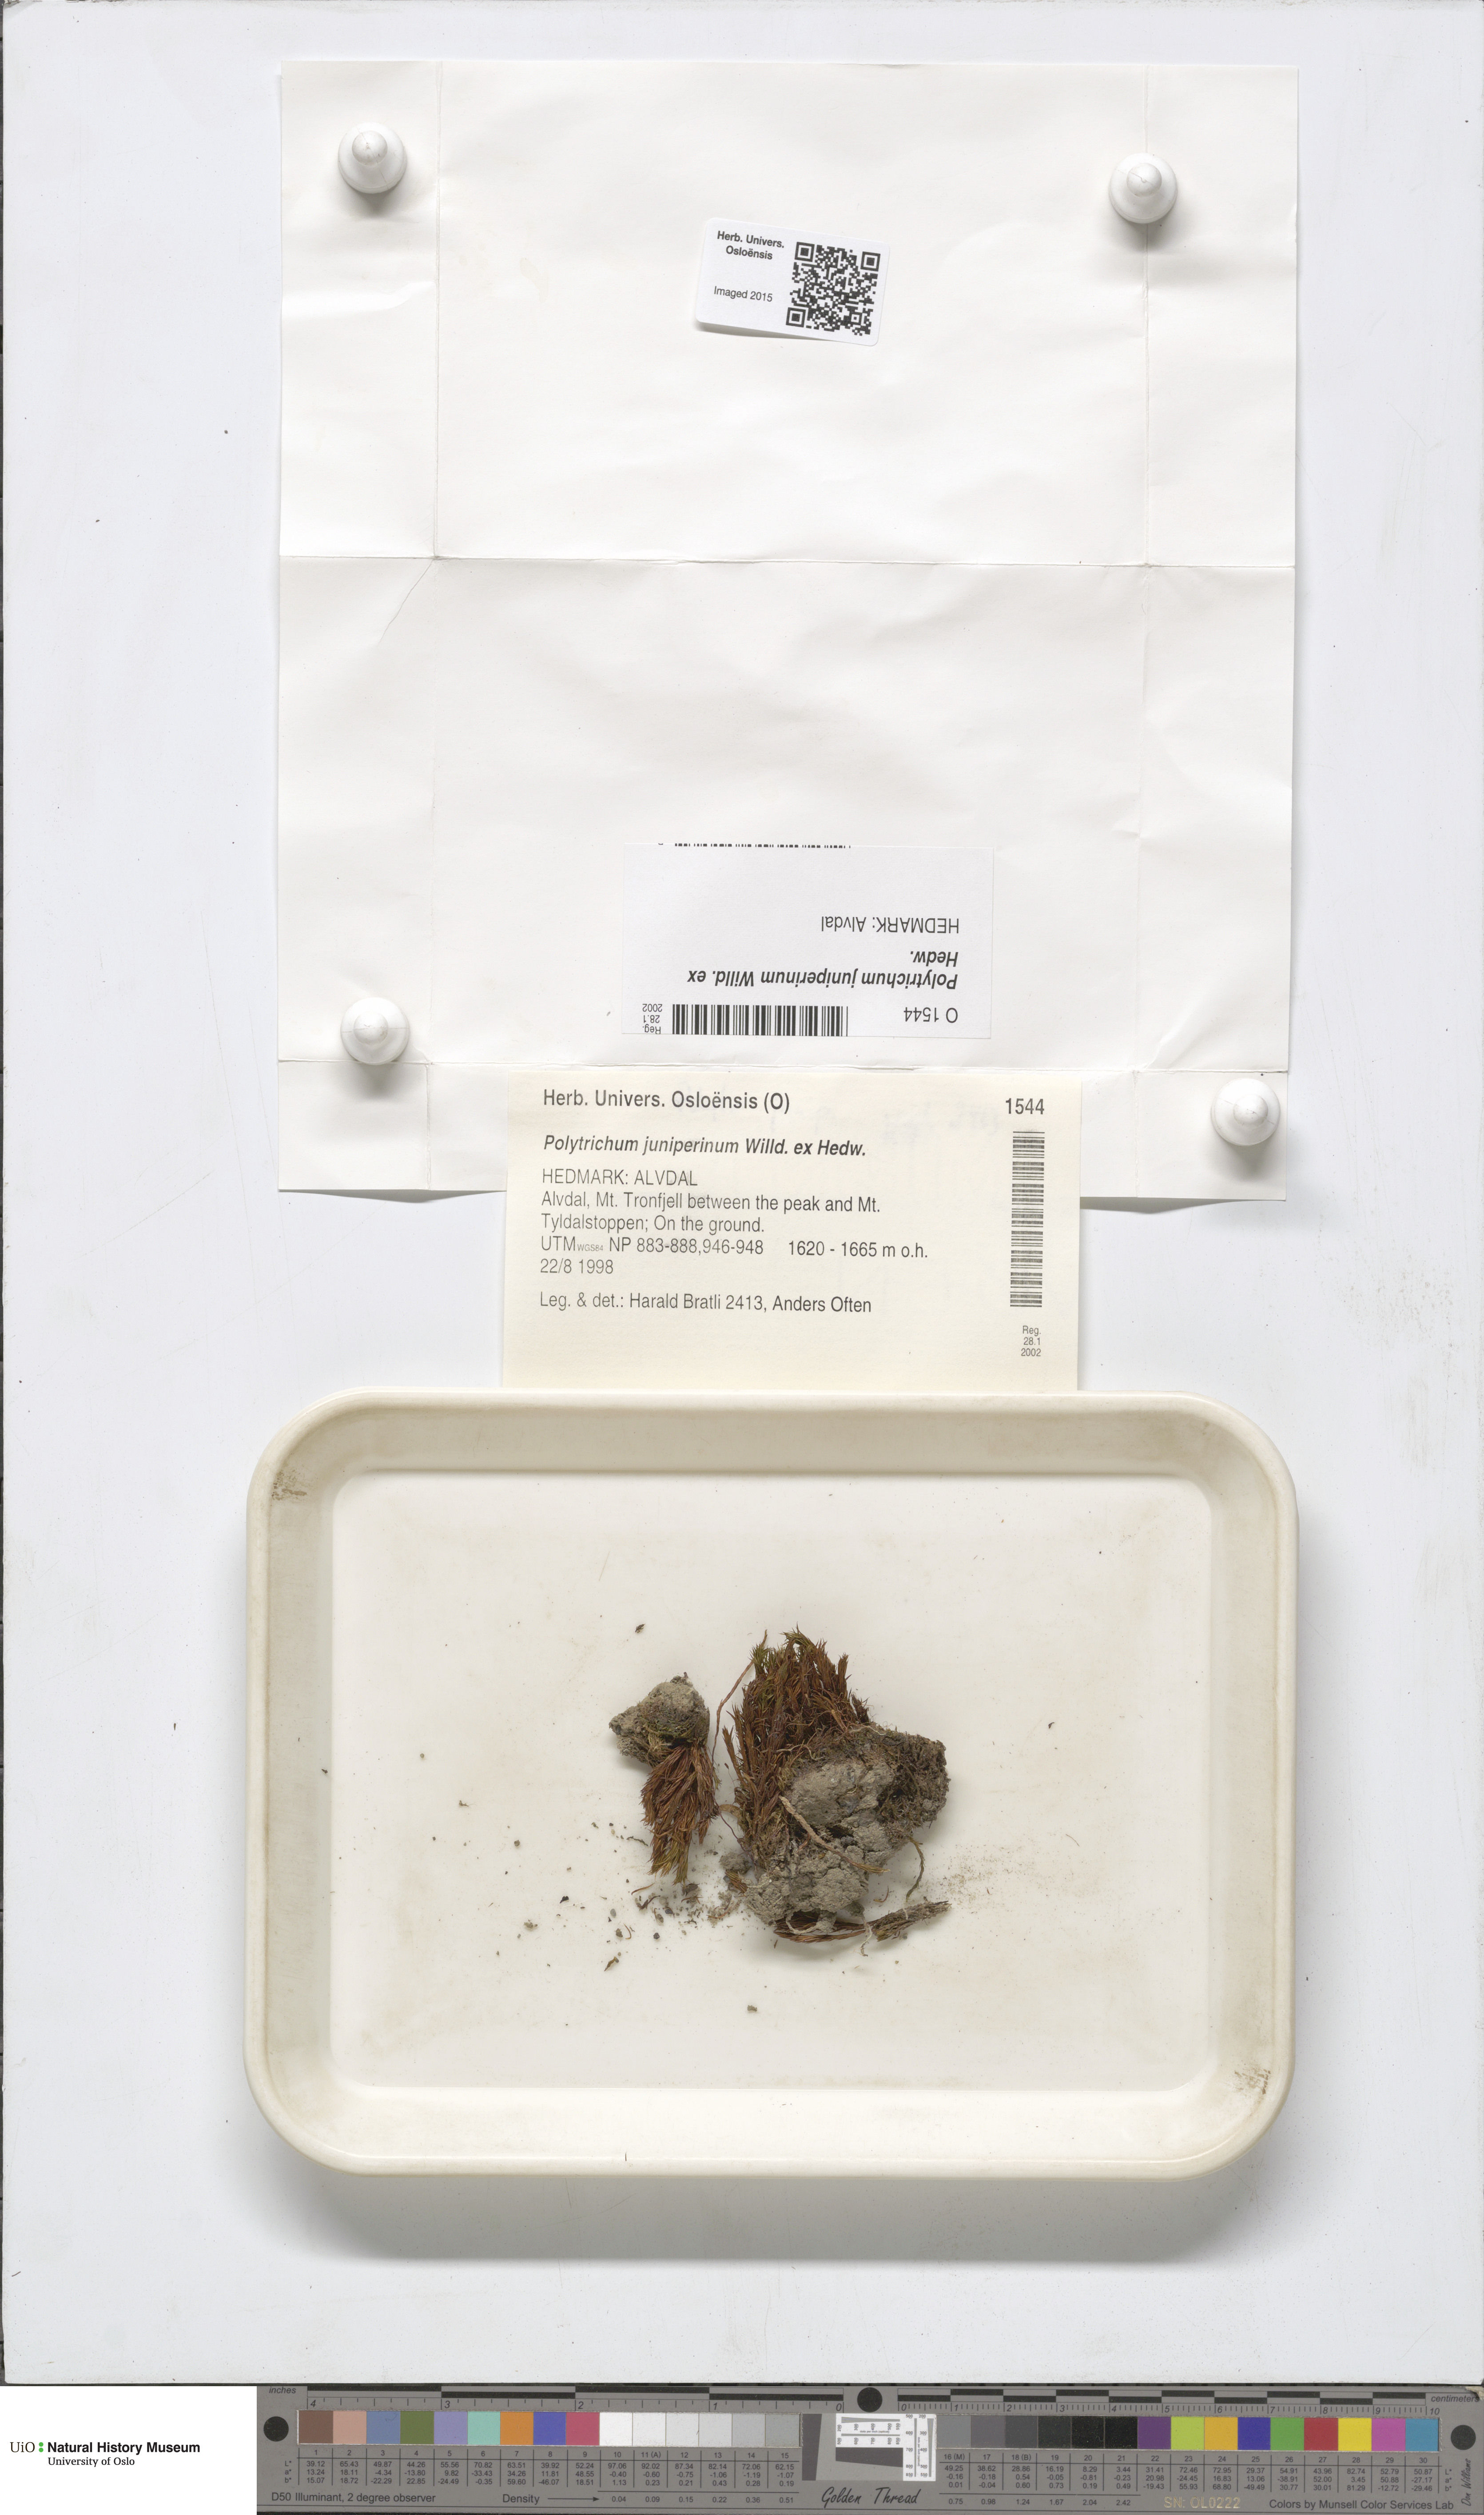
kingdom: Plantae
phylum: Bryophyta
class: Polytrichopsida
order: Polytrichales
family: Polytrichaceae
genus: Polytrichum
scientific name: Polytrichum juniperinum
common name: Juniper haircap moss
